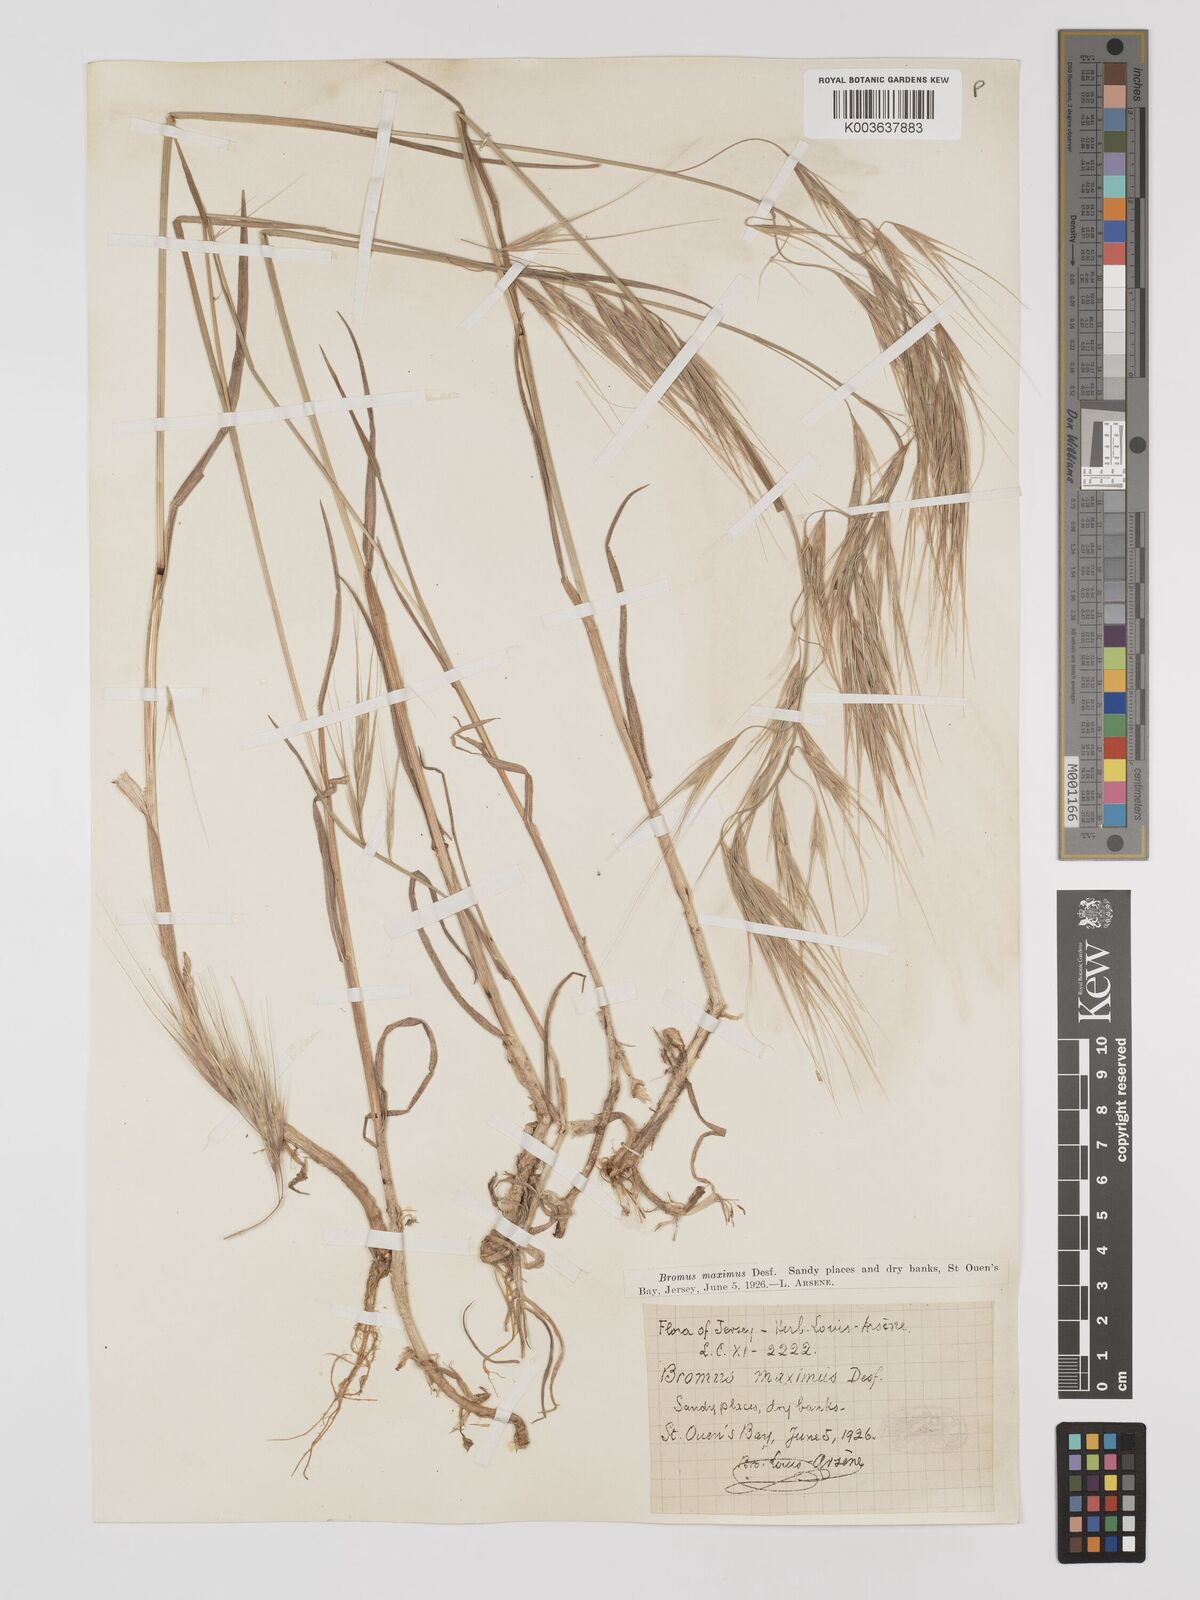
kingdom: Plantae
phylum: Tracheophyta
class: Liliopsida
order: Poales
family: Poaceae
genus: Bromus
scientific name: Bromus
